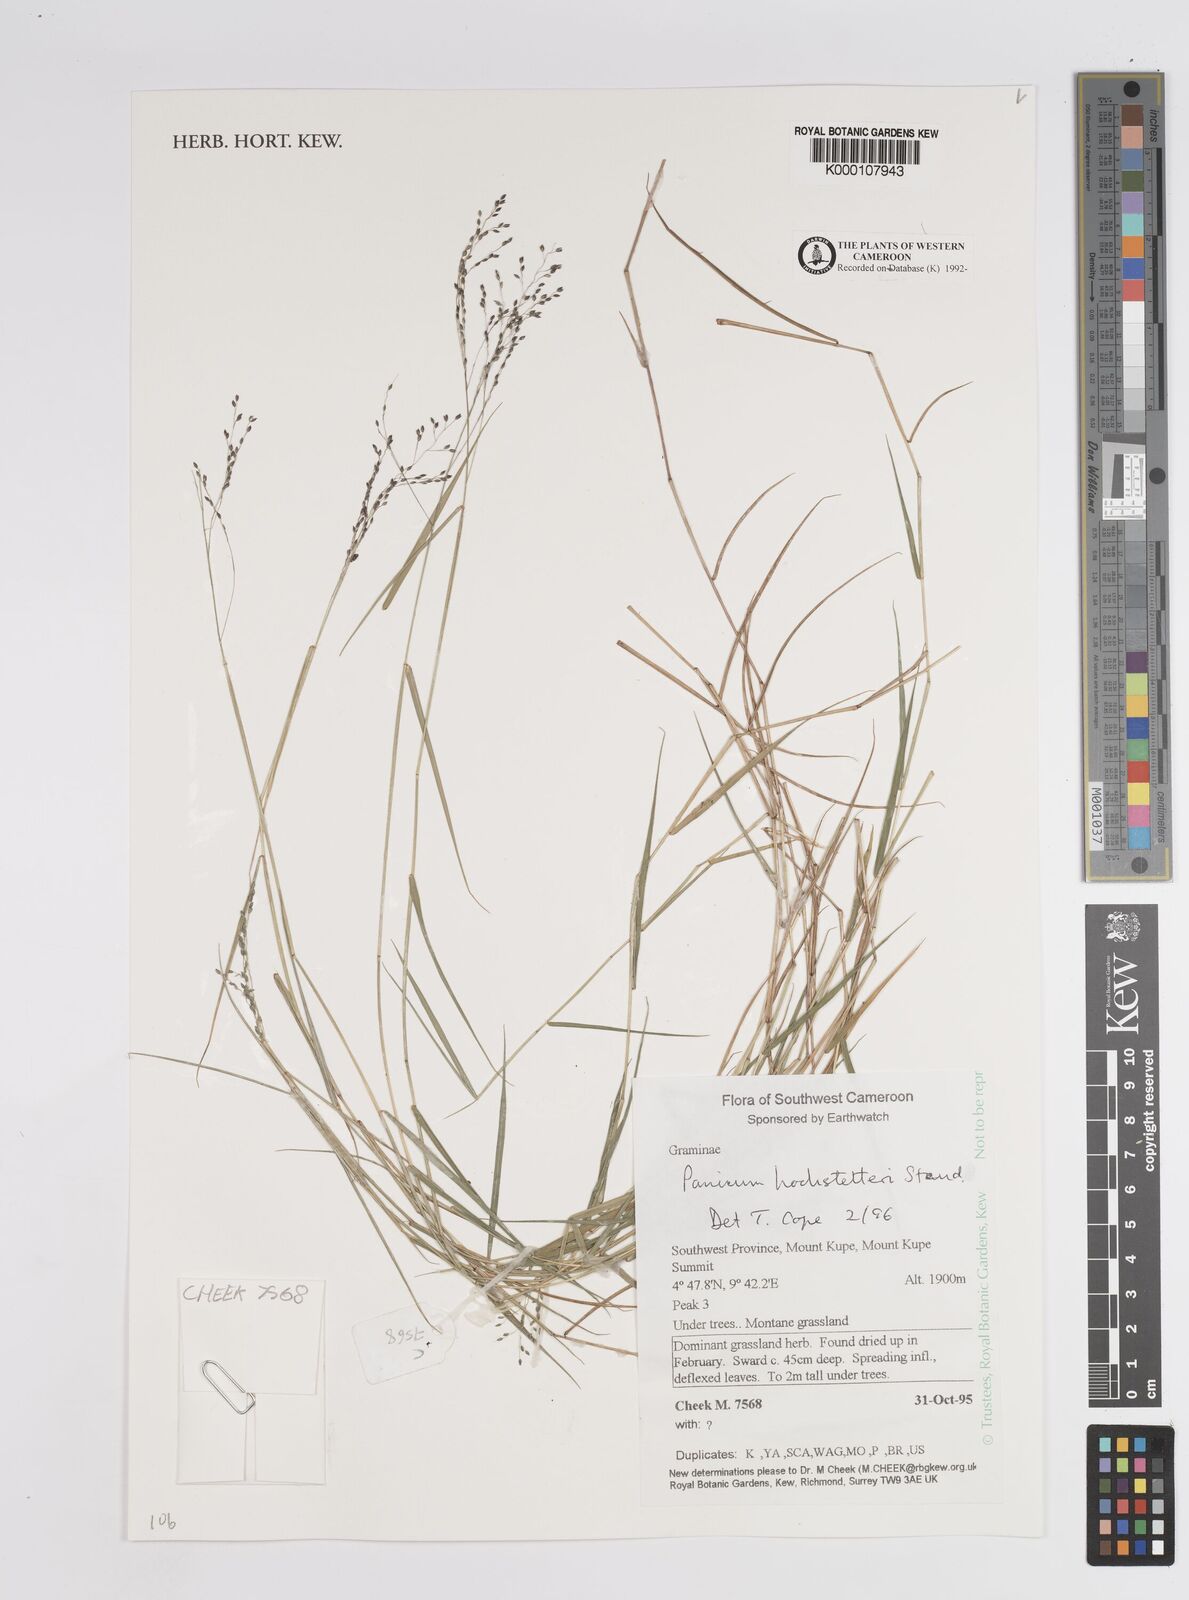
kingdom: Plantae
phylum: Tracheophyta
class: Liliopsida
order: Poales
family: Poaceae
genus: Panicum
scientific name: Panicum hochstetteri
